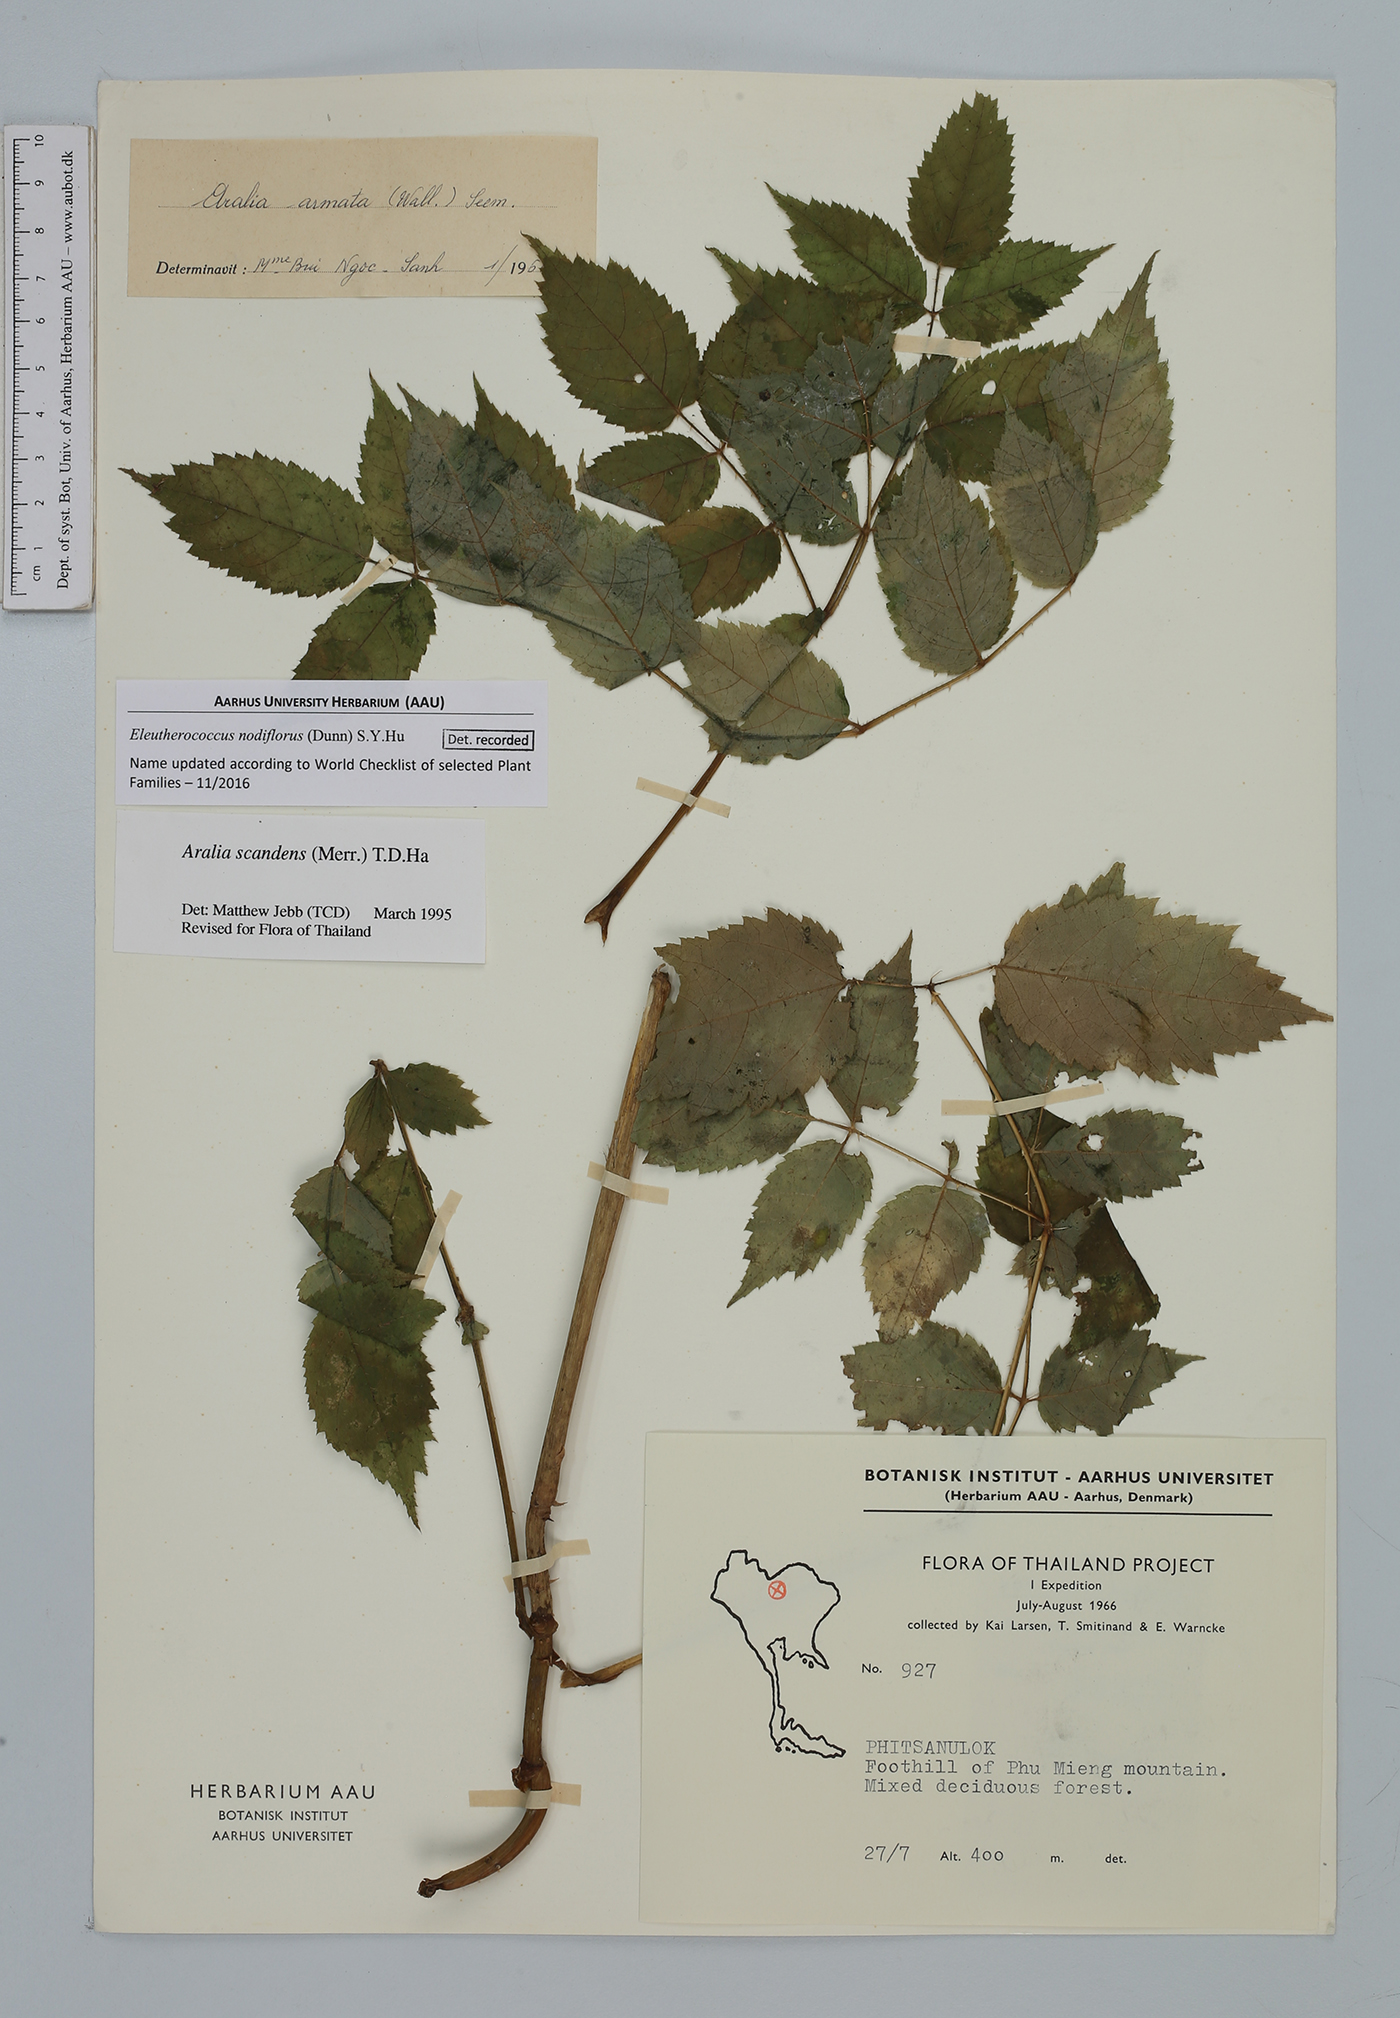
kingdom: Plantae
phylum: Tracheophyta
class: Magnoliopsida
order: Apiales
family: Araliaceae
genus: Aralia
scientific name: Aralia armata
